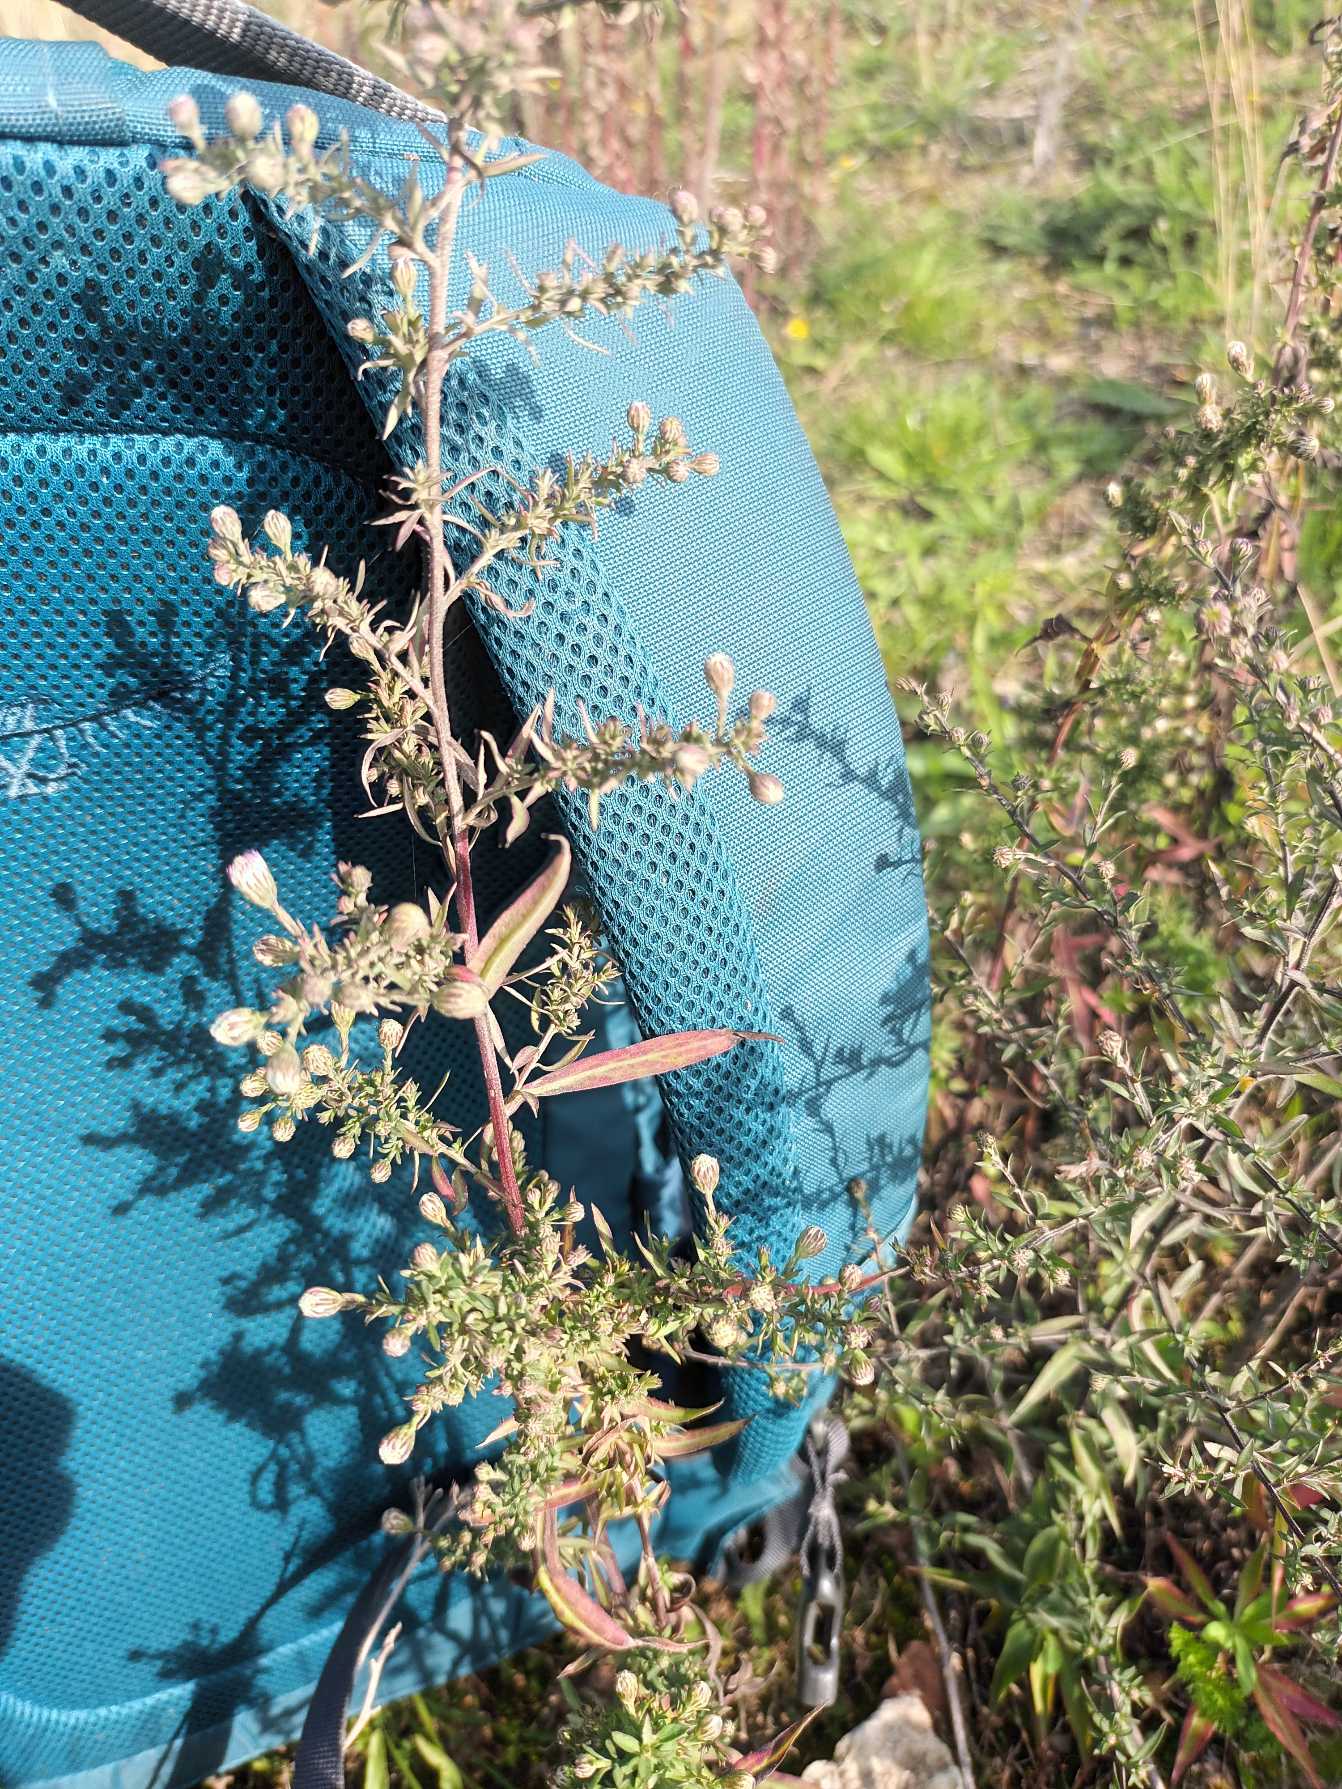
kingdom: Plantae
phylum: Tracheophyta
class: Magnoliopsida
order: Asterales
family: Asteraceae
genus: Symphyotrichum
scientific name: Symphyotrichum pilosum
